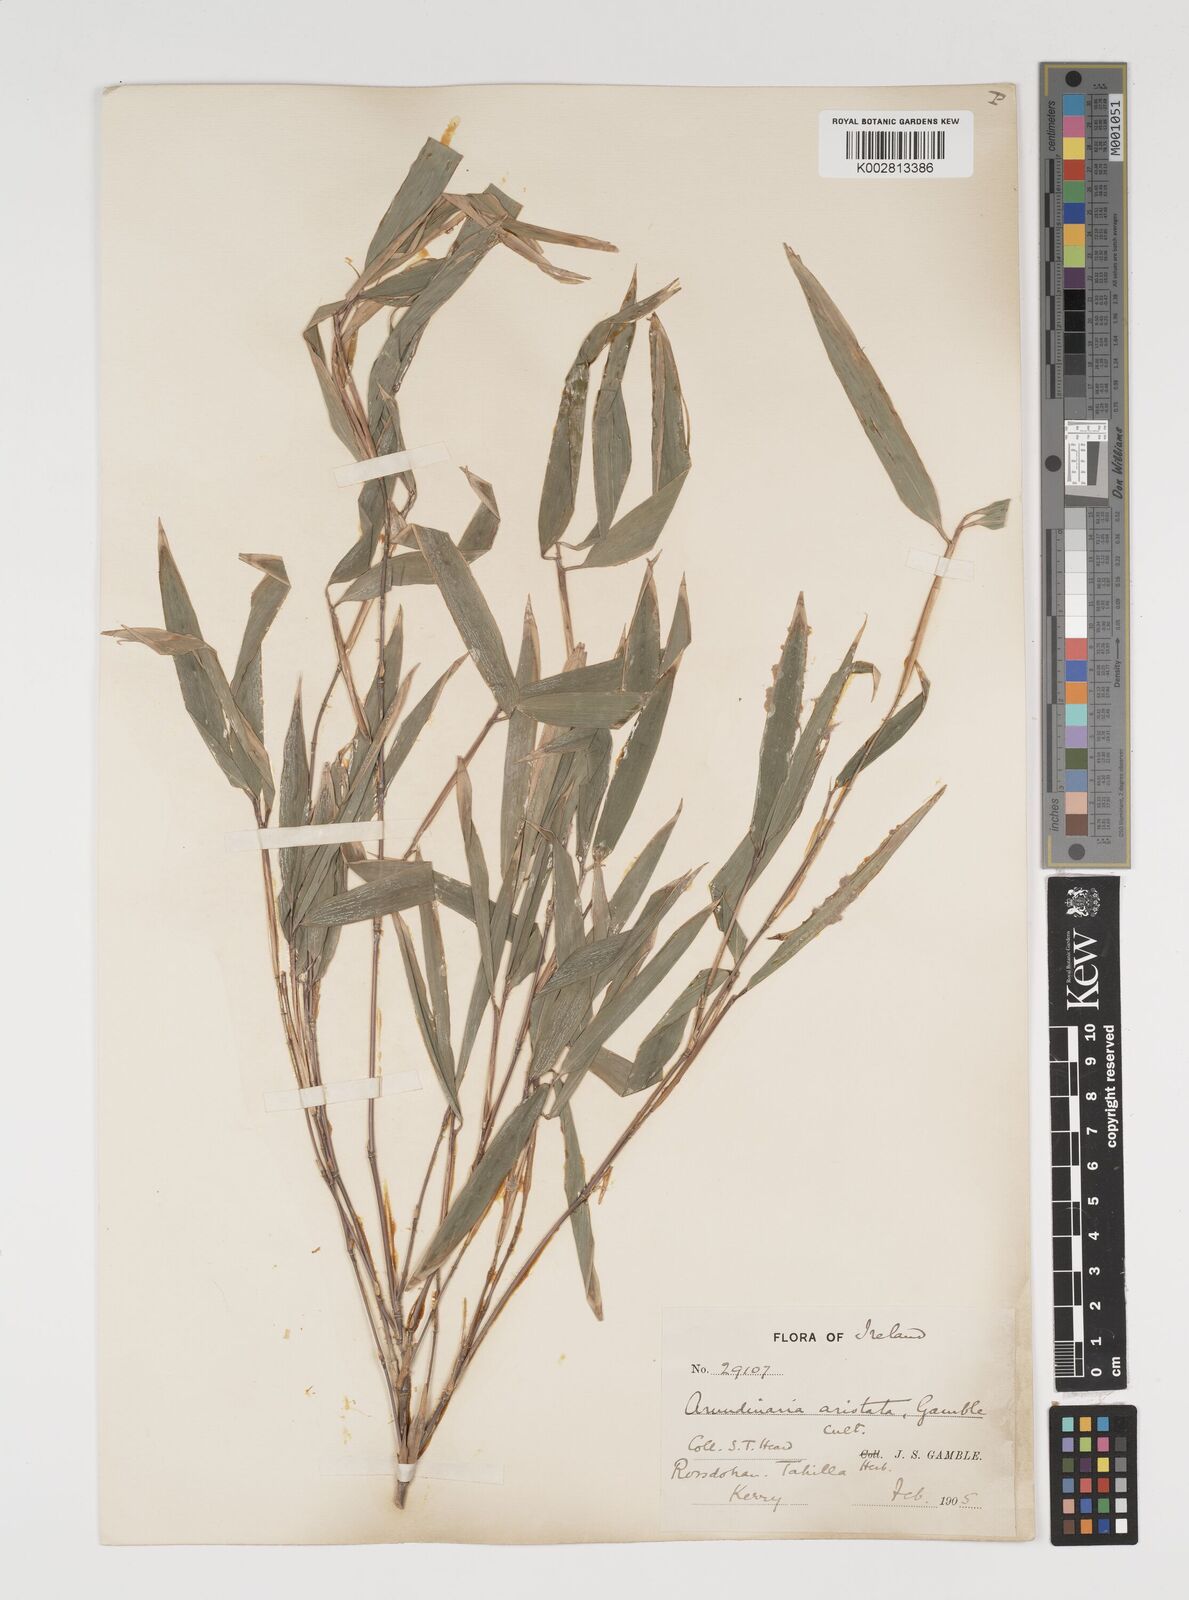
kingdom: Plantae
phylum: Tracheophyta
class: Liliopsida
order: Poales
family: Poaceae
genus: Thamnocalamus
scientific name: Thamnocalamus spathiflorus
